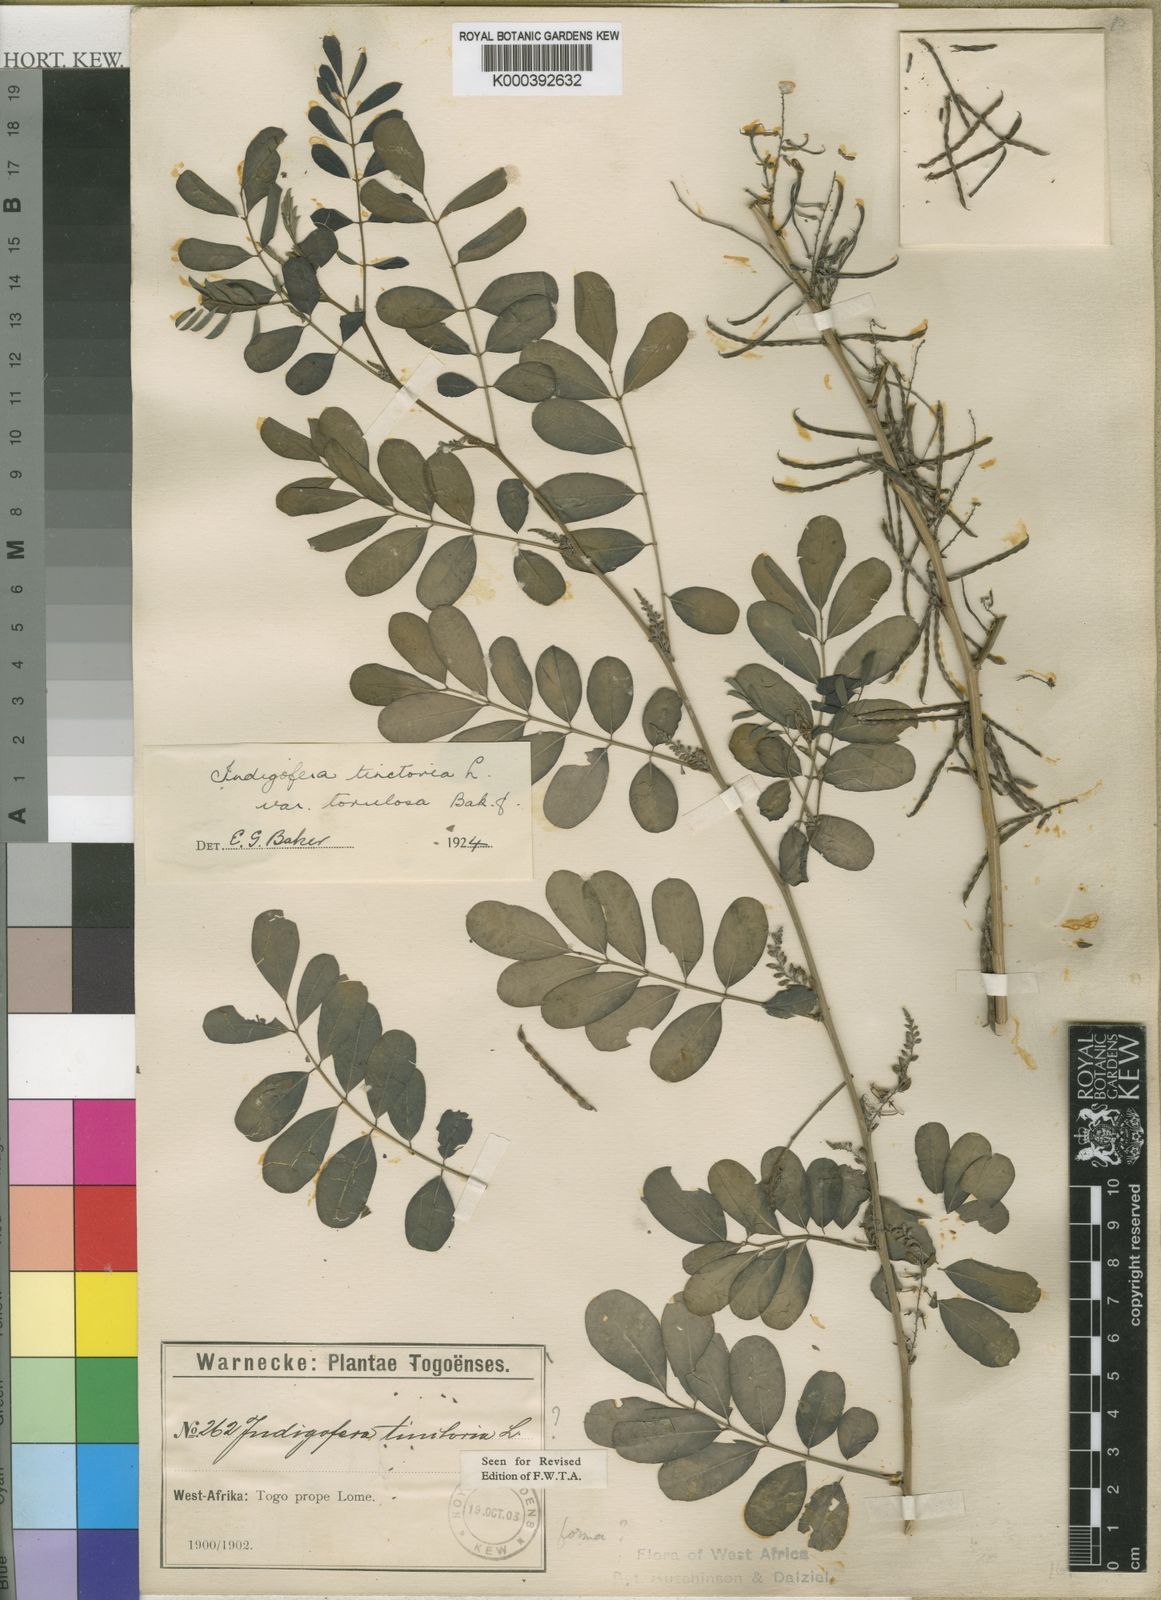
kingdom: Plantae
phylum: Tracheophyta
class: Magnoliopsida
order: Fabales
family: Fabaceae
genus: Indigofera
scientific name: Indigofera tinctoria
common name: True indigo
